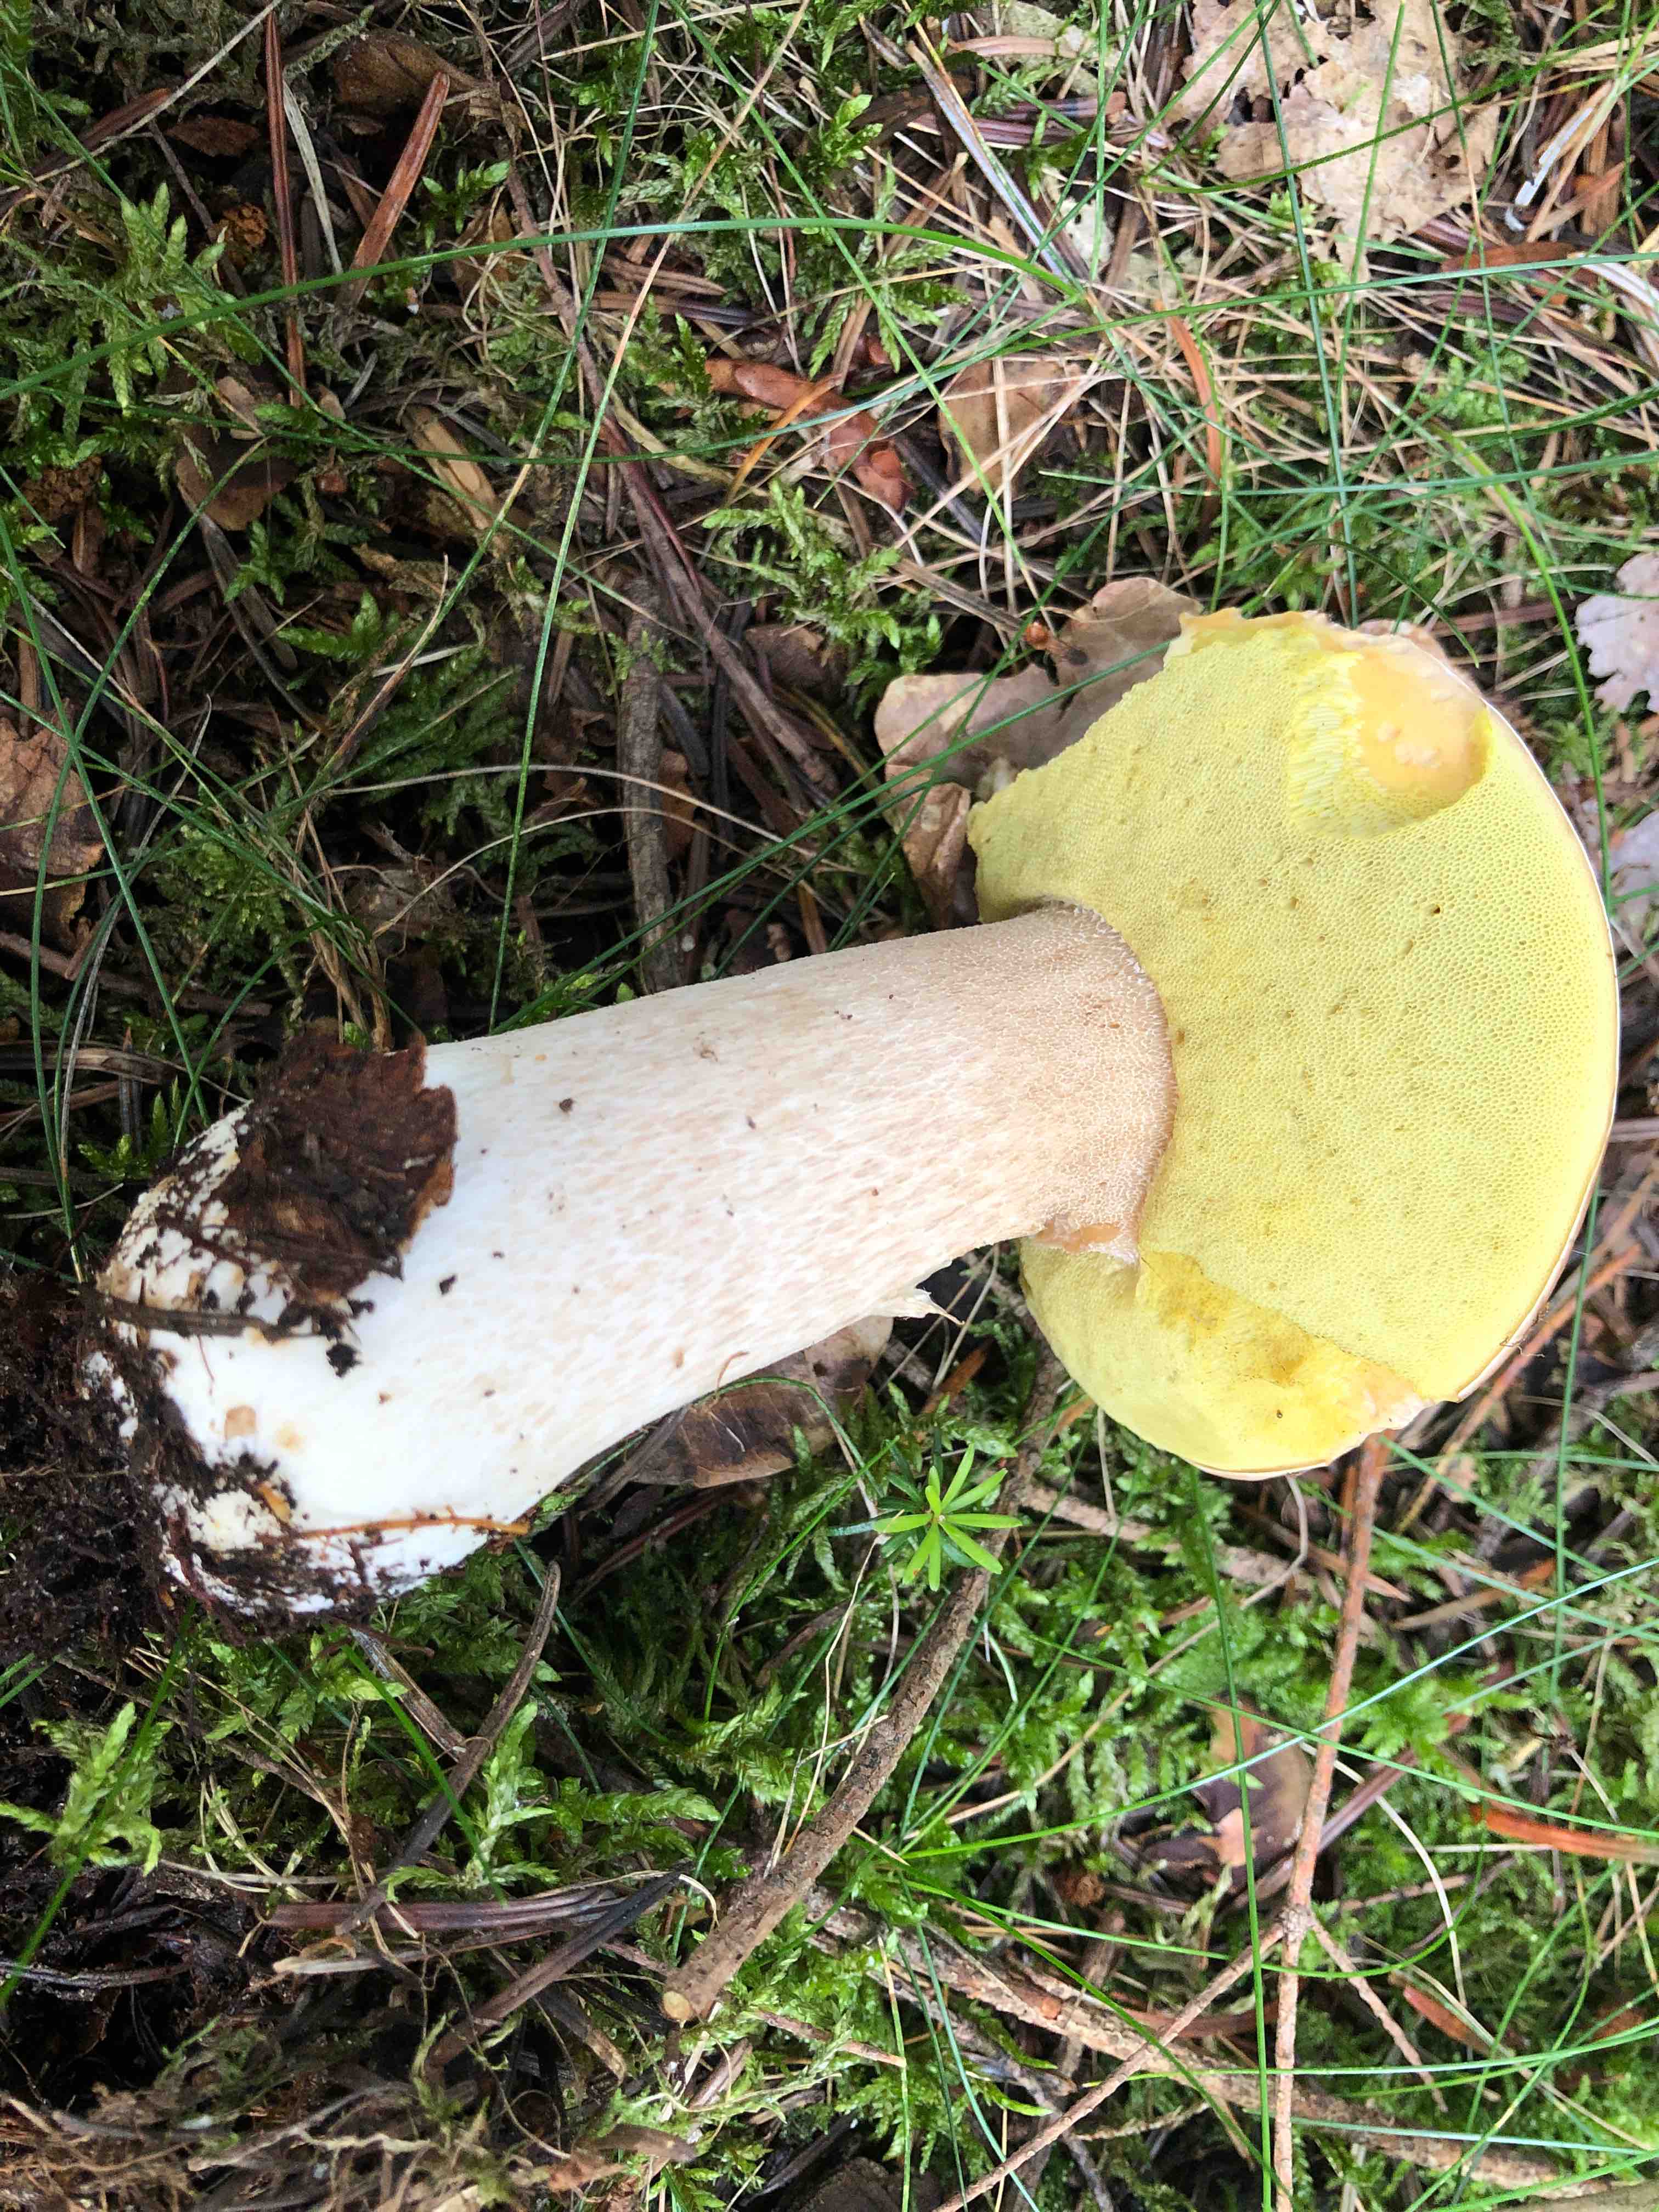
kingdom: Fungi
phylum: Basidiomycota
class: Agaricomycetes
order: Boletales
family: Boletaceae
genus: Boletus
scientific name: Boletus edulis
